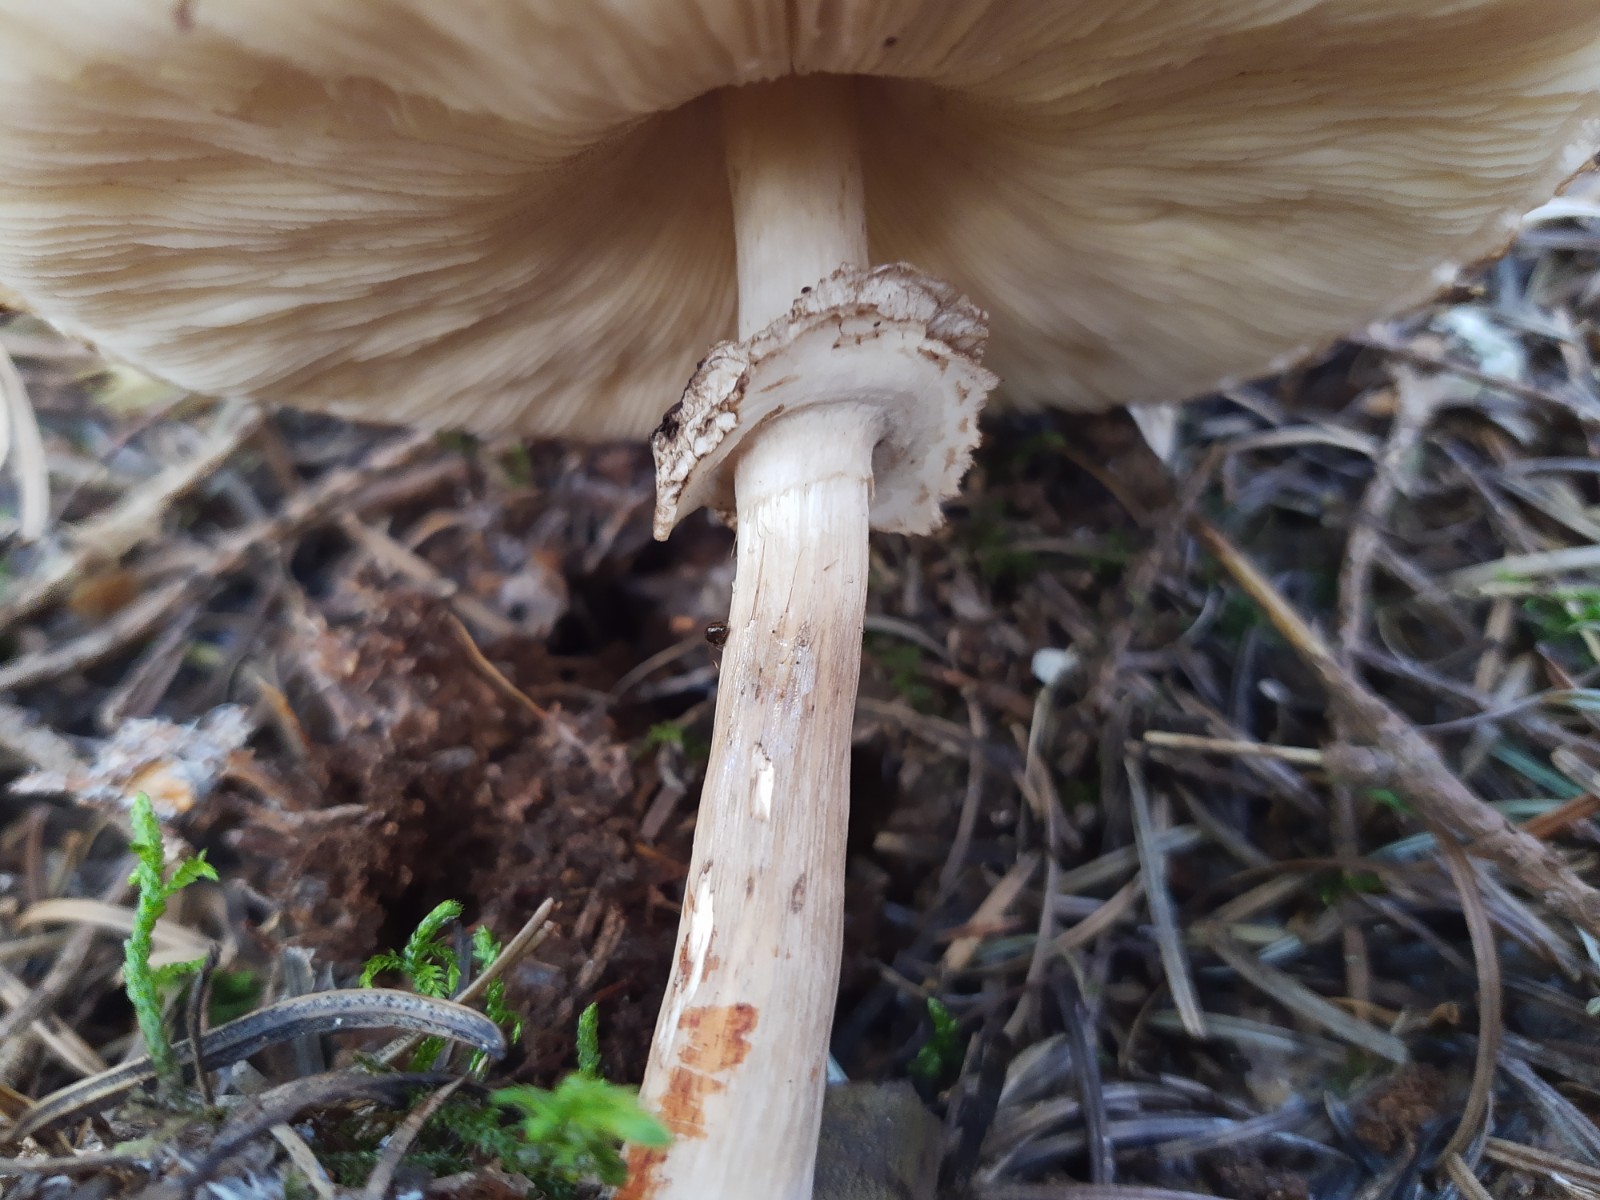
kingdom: Fungi
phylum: Basidiomycota
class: Agaricomycetes
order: Agaricales
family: Agaricaceae
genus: Chlorophyllum
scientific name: Chlorophyllum olivieri
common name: almindelig rabarberhat
